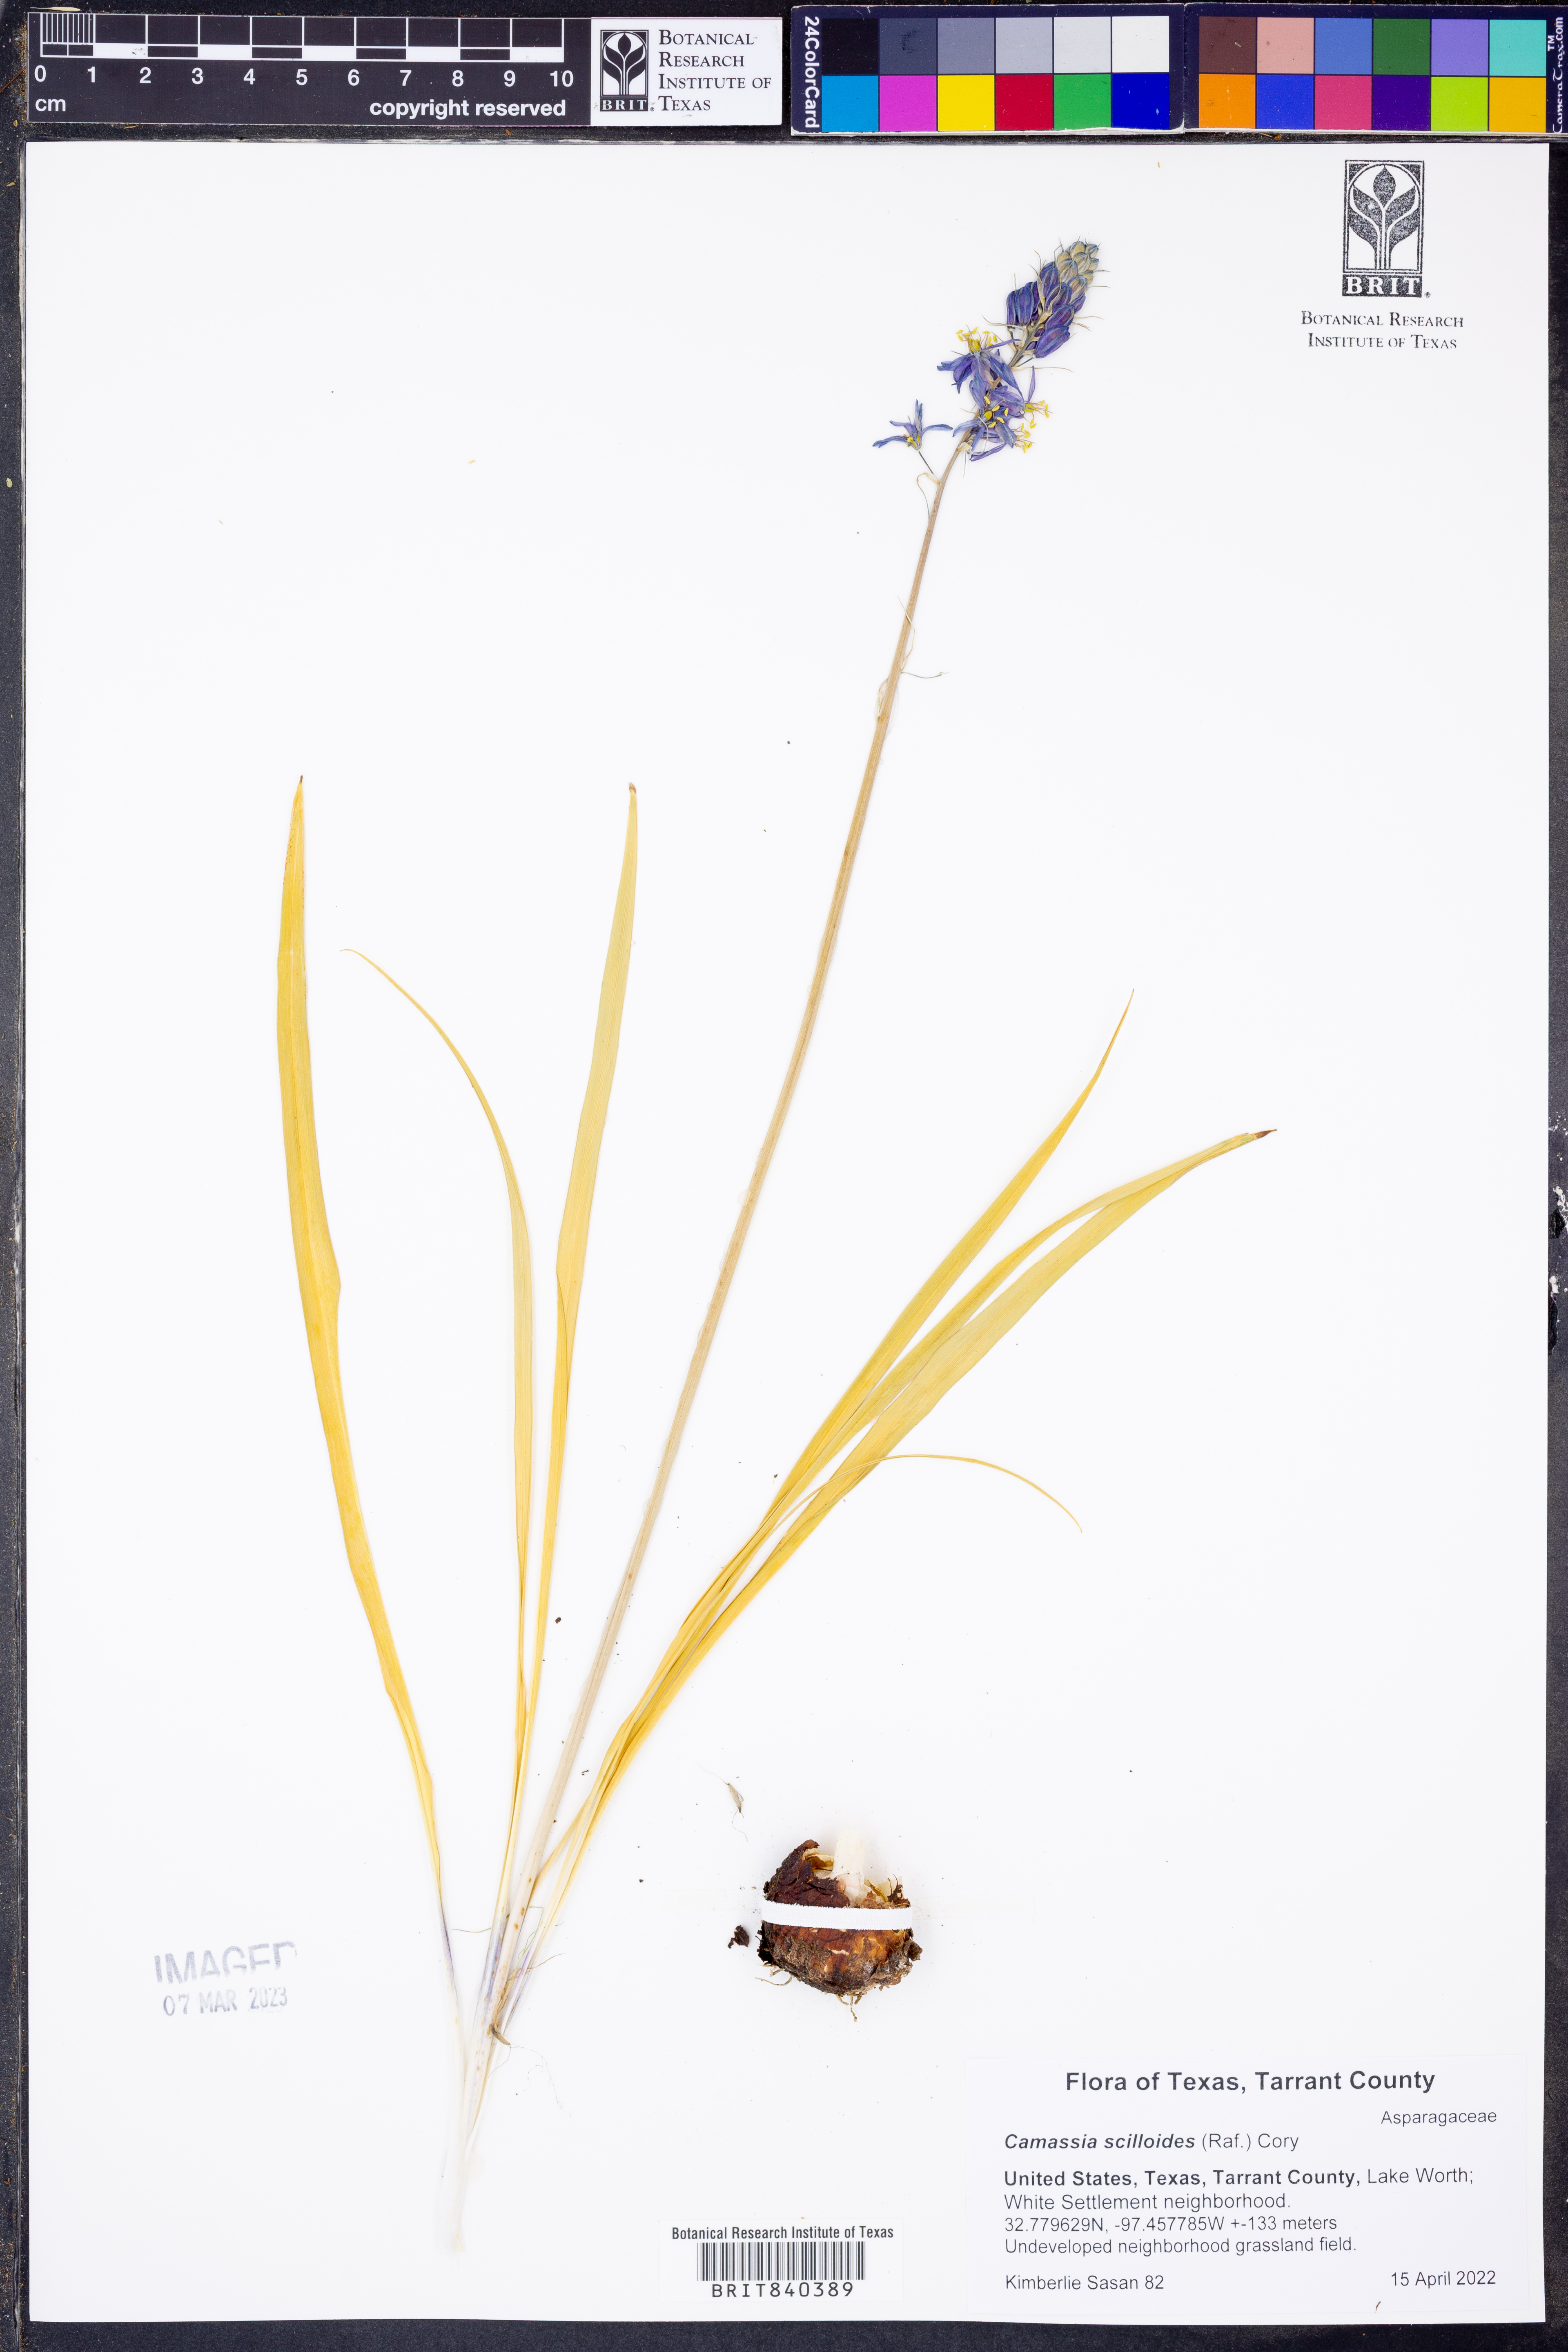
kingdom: Plantae
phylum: Tracheophyta
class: Liliopsida
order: Asparagales
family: Asparagaceae
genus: Camassia
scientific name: Camassia scilloides
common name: Wild hyacinth
